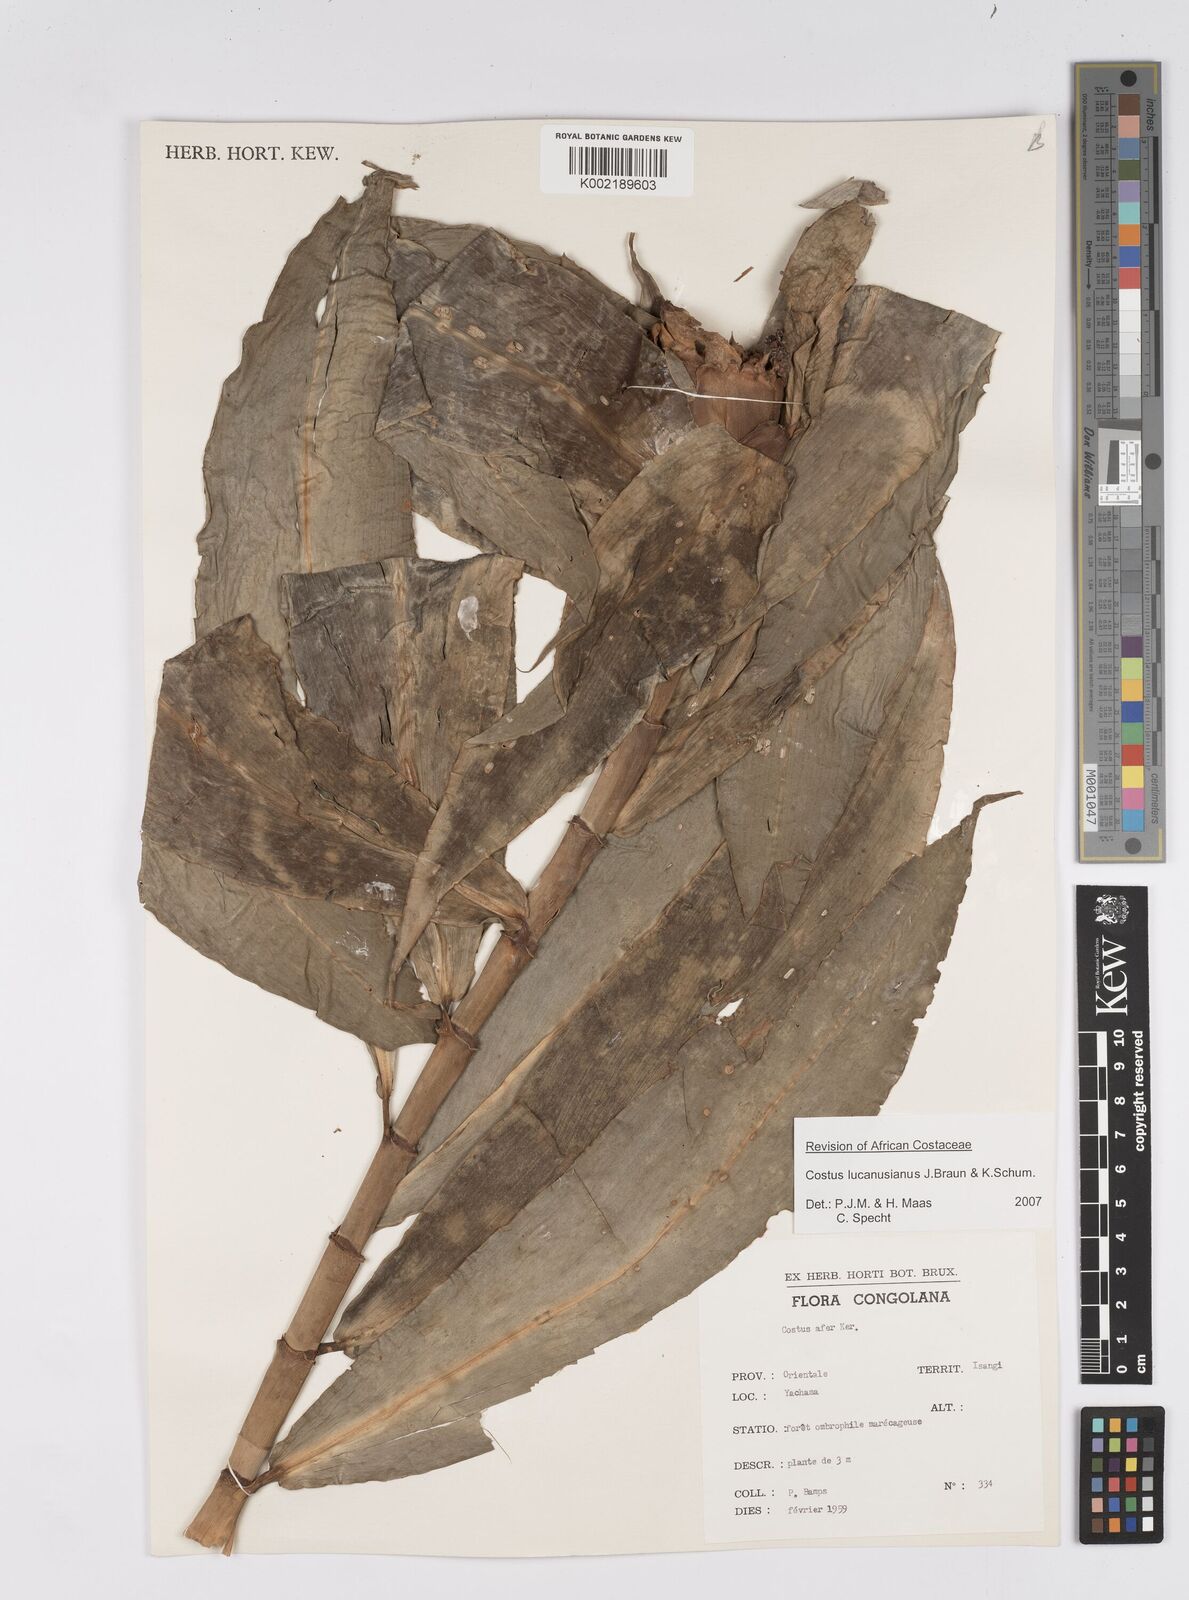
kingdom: Plantae
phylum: Tracheophyta
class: Liliopsida
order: Zingiberales
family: Costaceae
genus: Costus
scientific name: Costus lucanusianus
